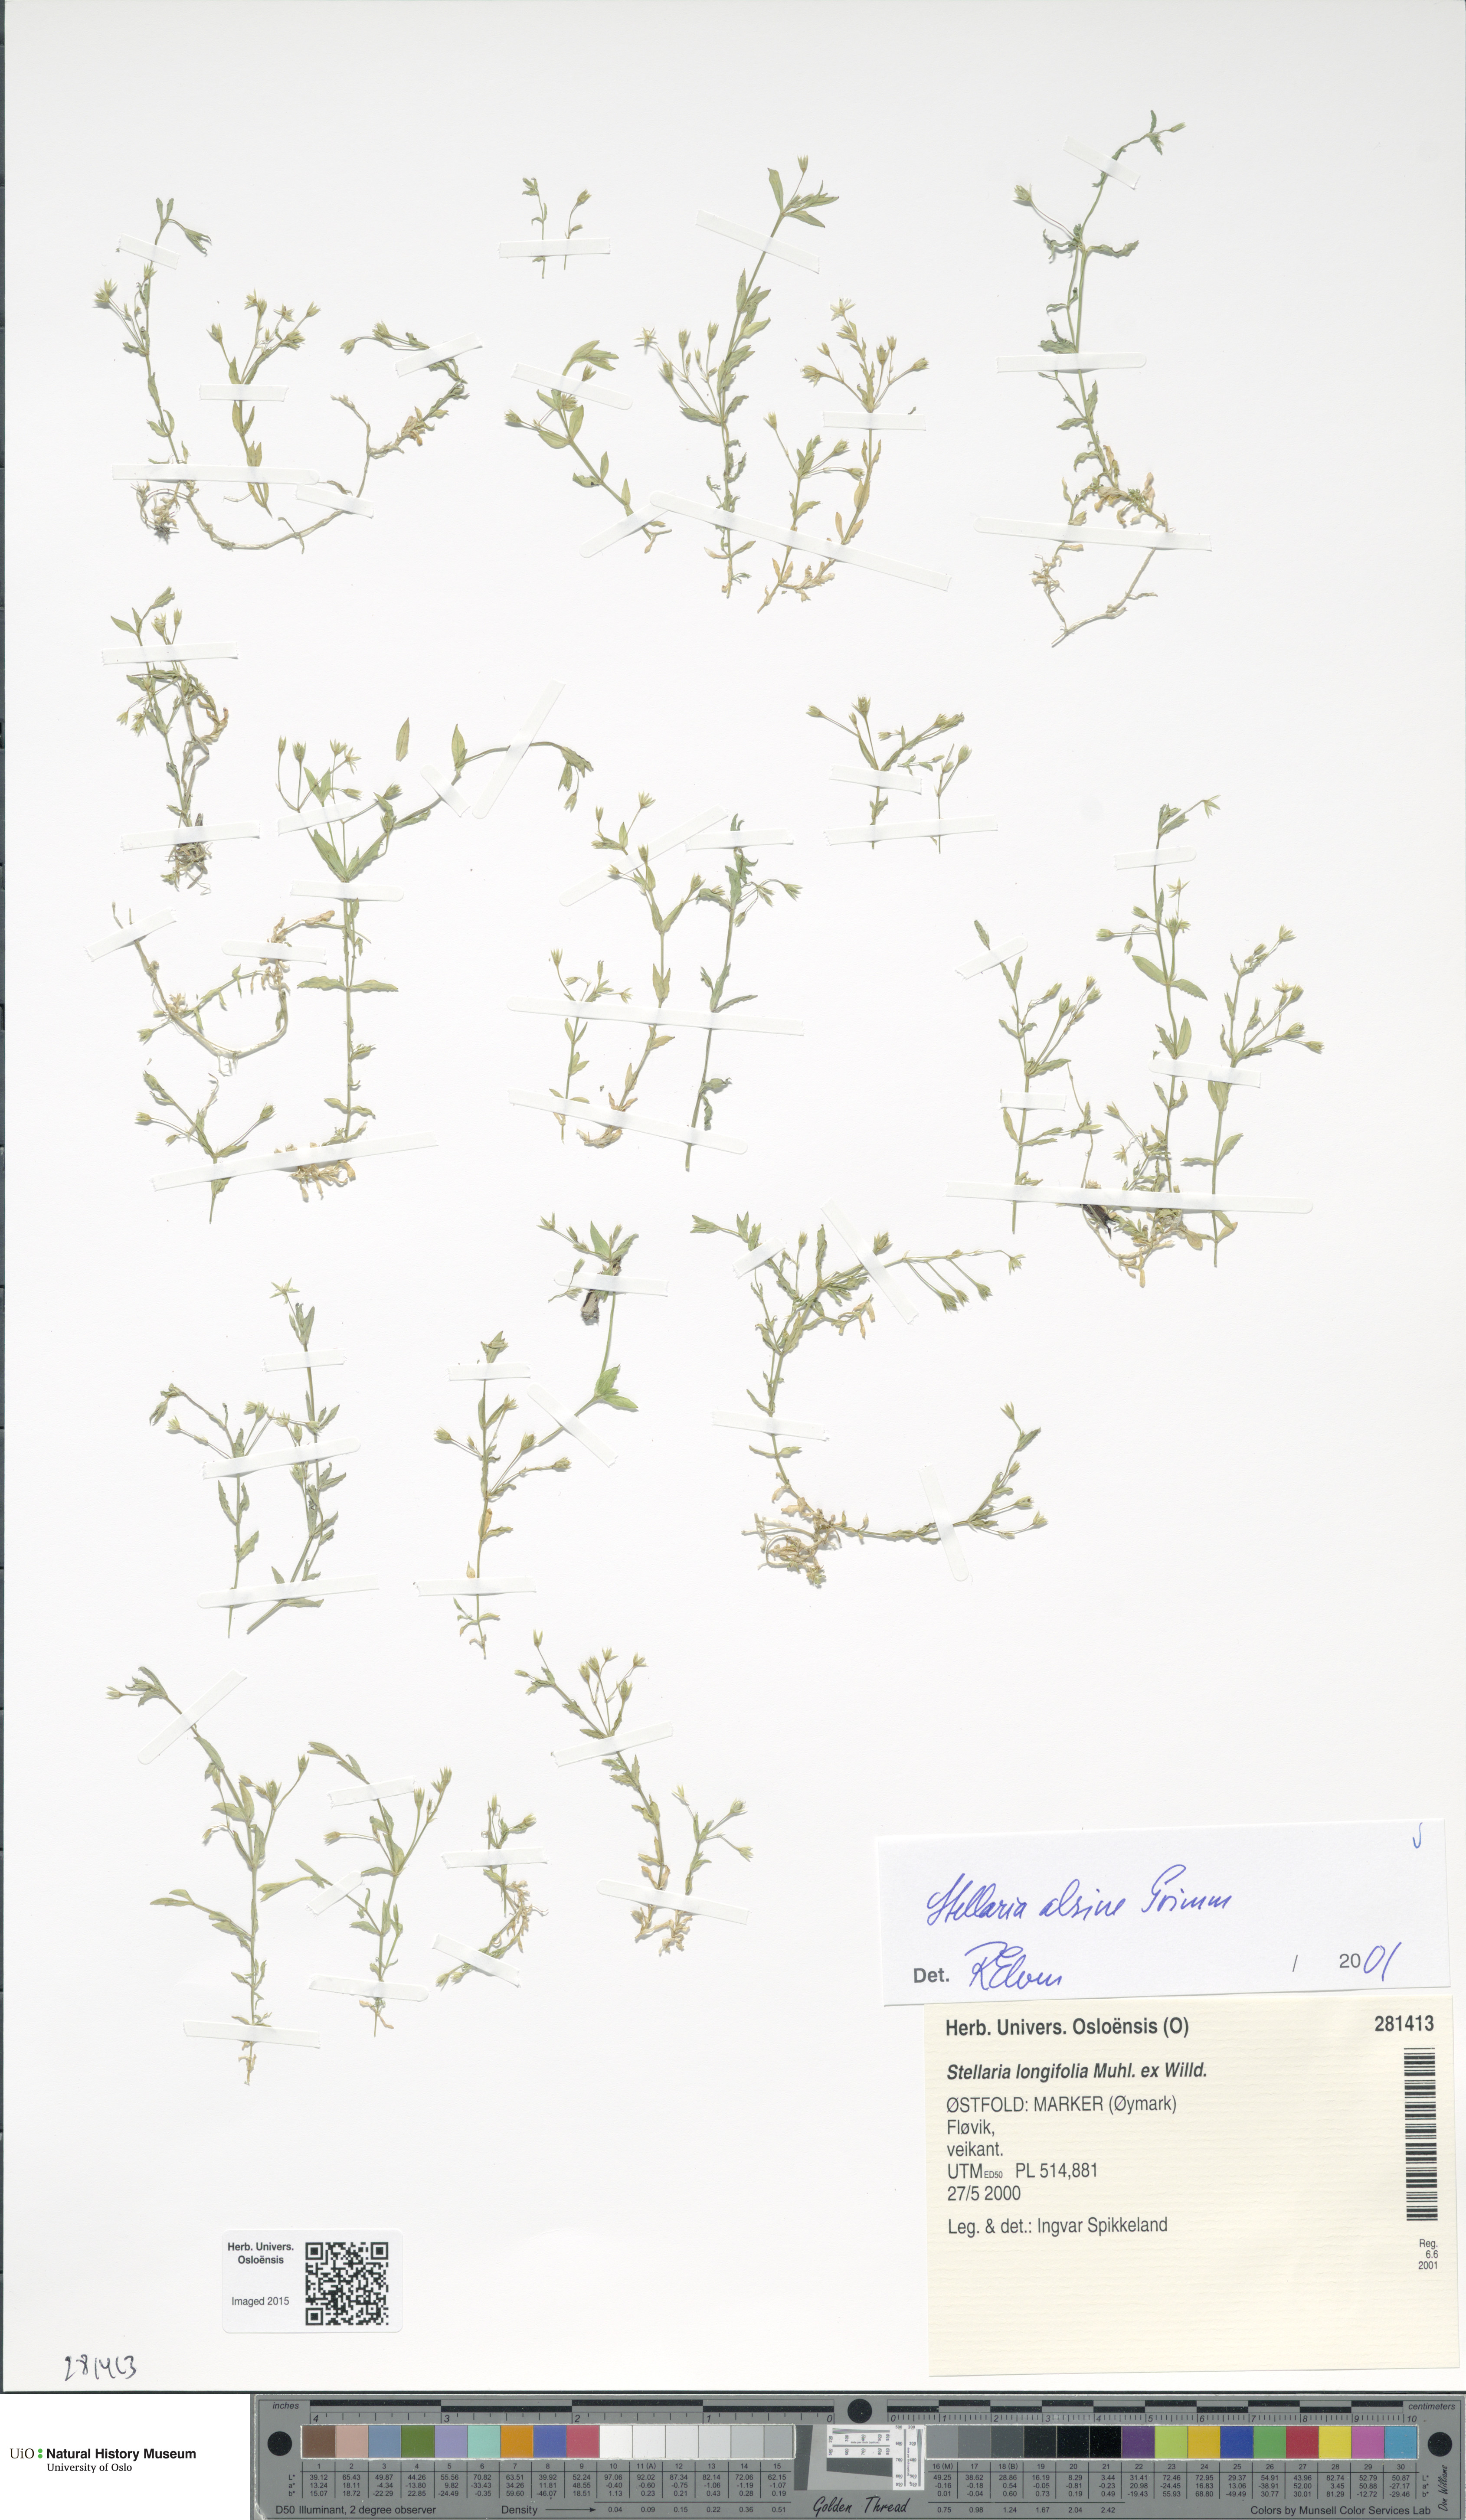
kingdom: Plantae
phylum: Tracheophyta
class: Magnoliopsida
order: Caryophyllales
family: Caryophyllaceae
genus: Stellaria
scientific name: Stellaria alsine
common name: Bog stitchwort
